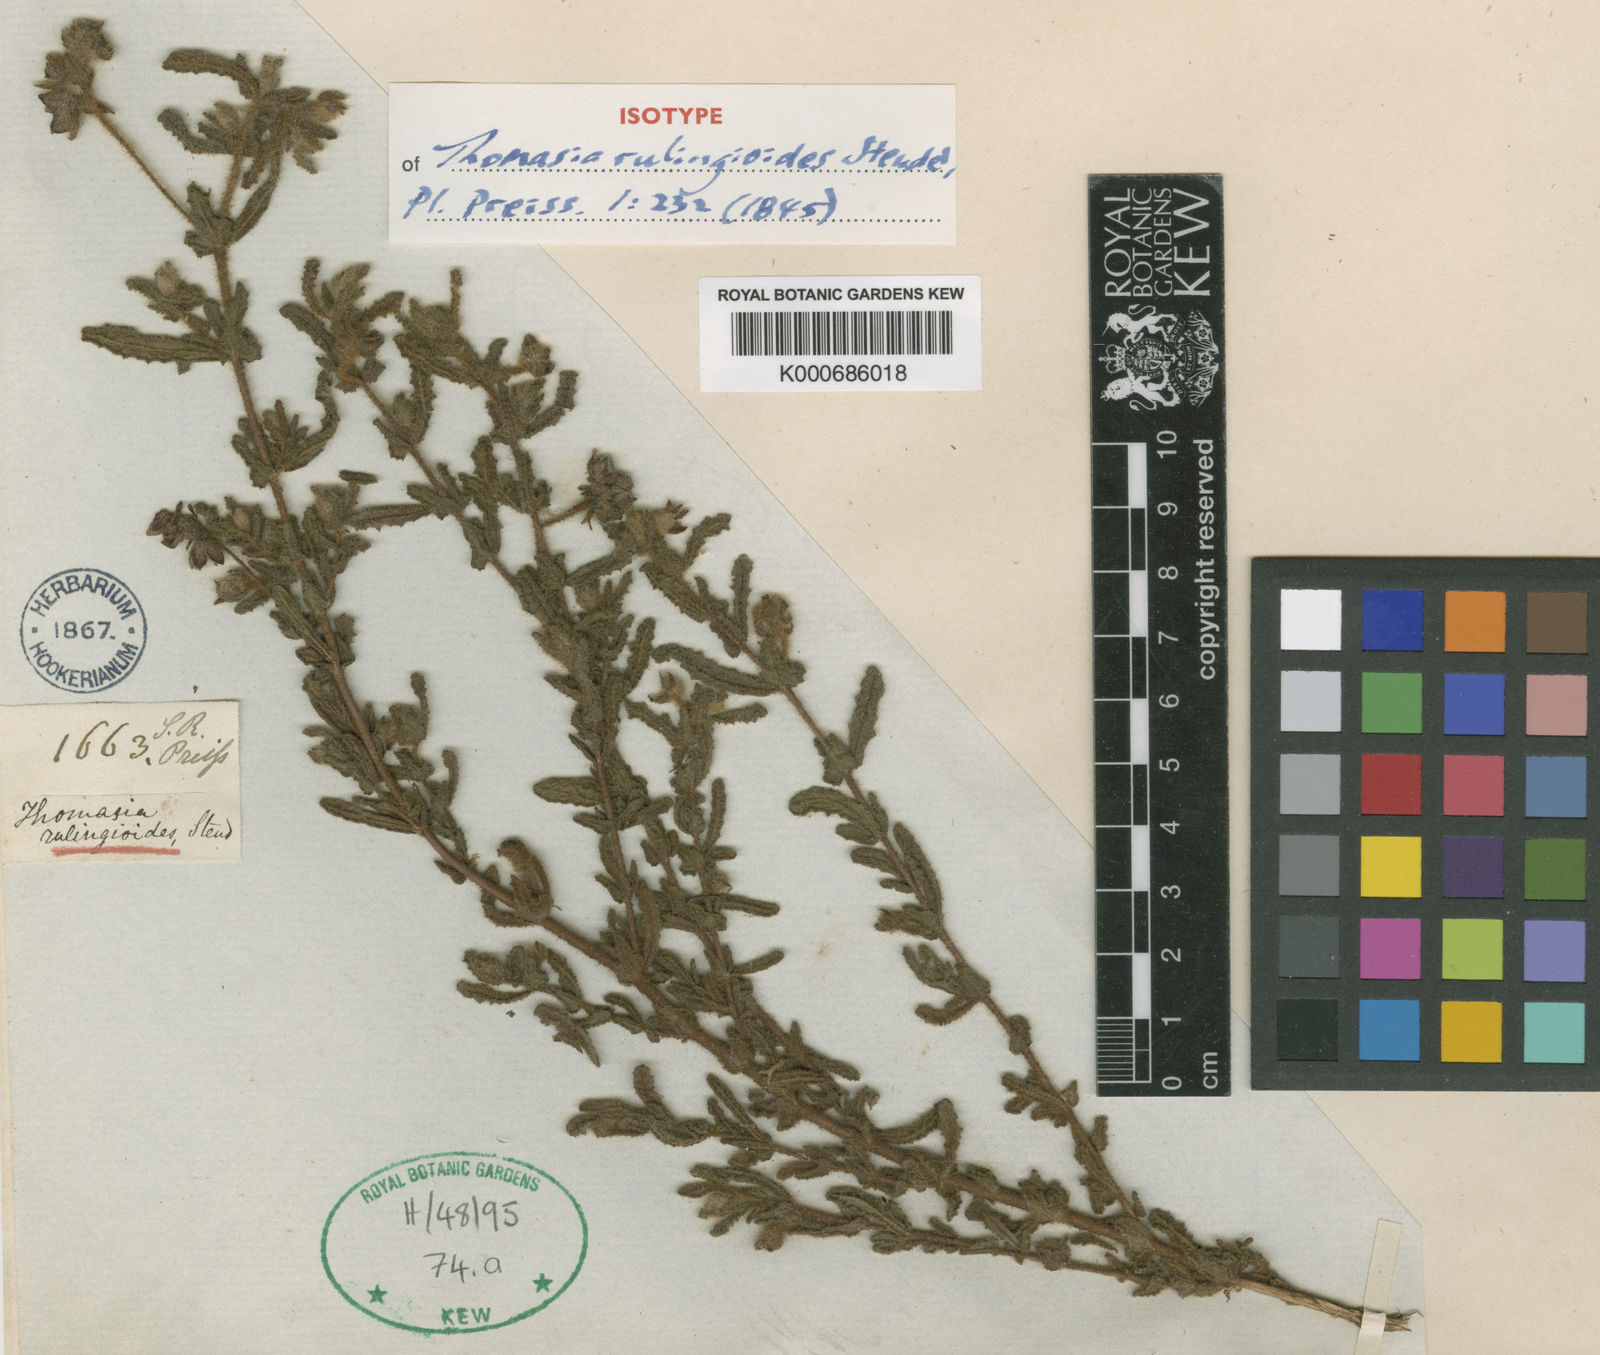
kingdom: Plantae
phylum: Tracheophyta
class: Magnoliopsida
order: Malvales
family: Malvaceae
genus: Thomasia
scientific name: Thomasia rulingioides
